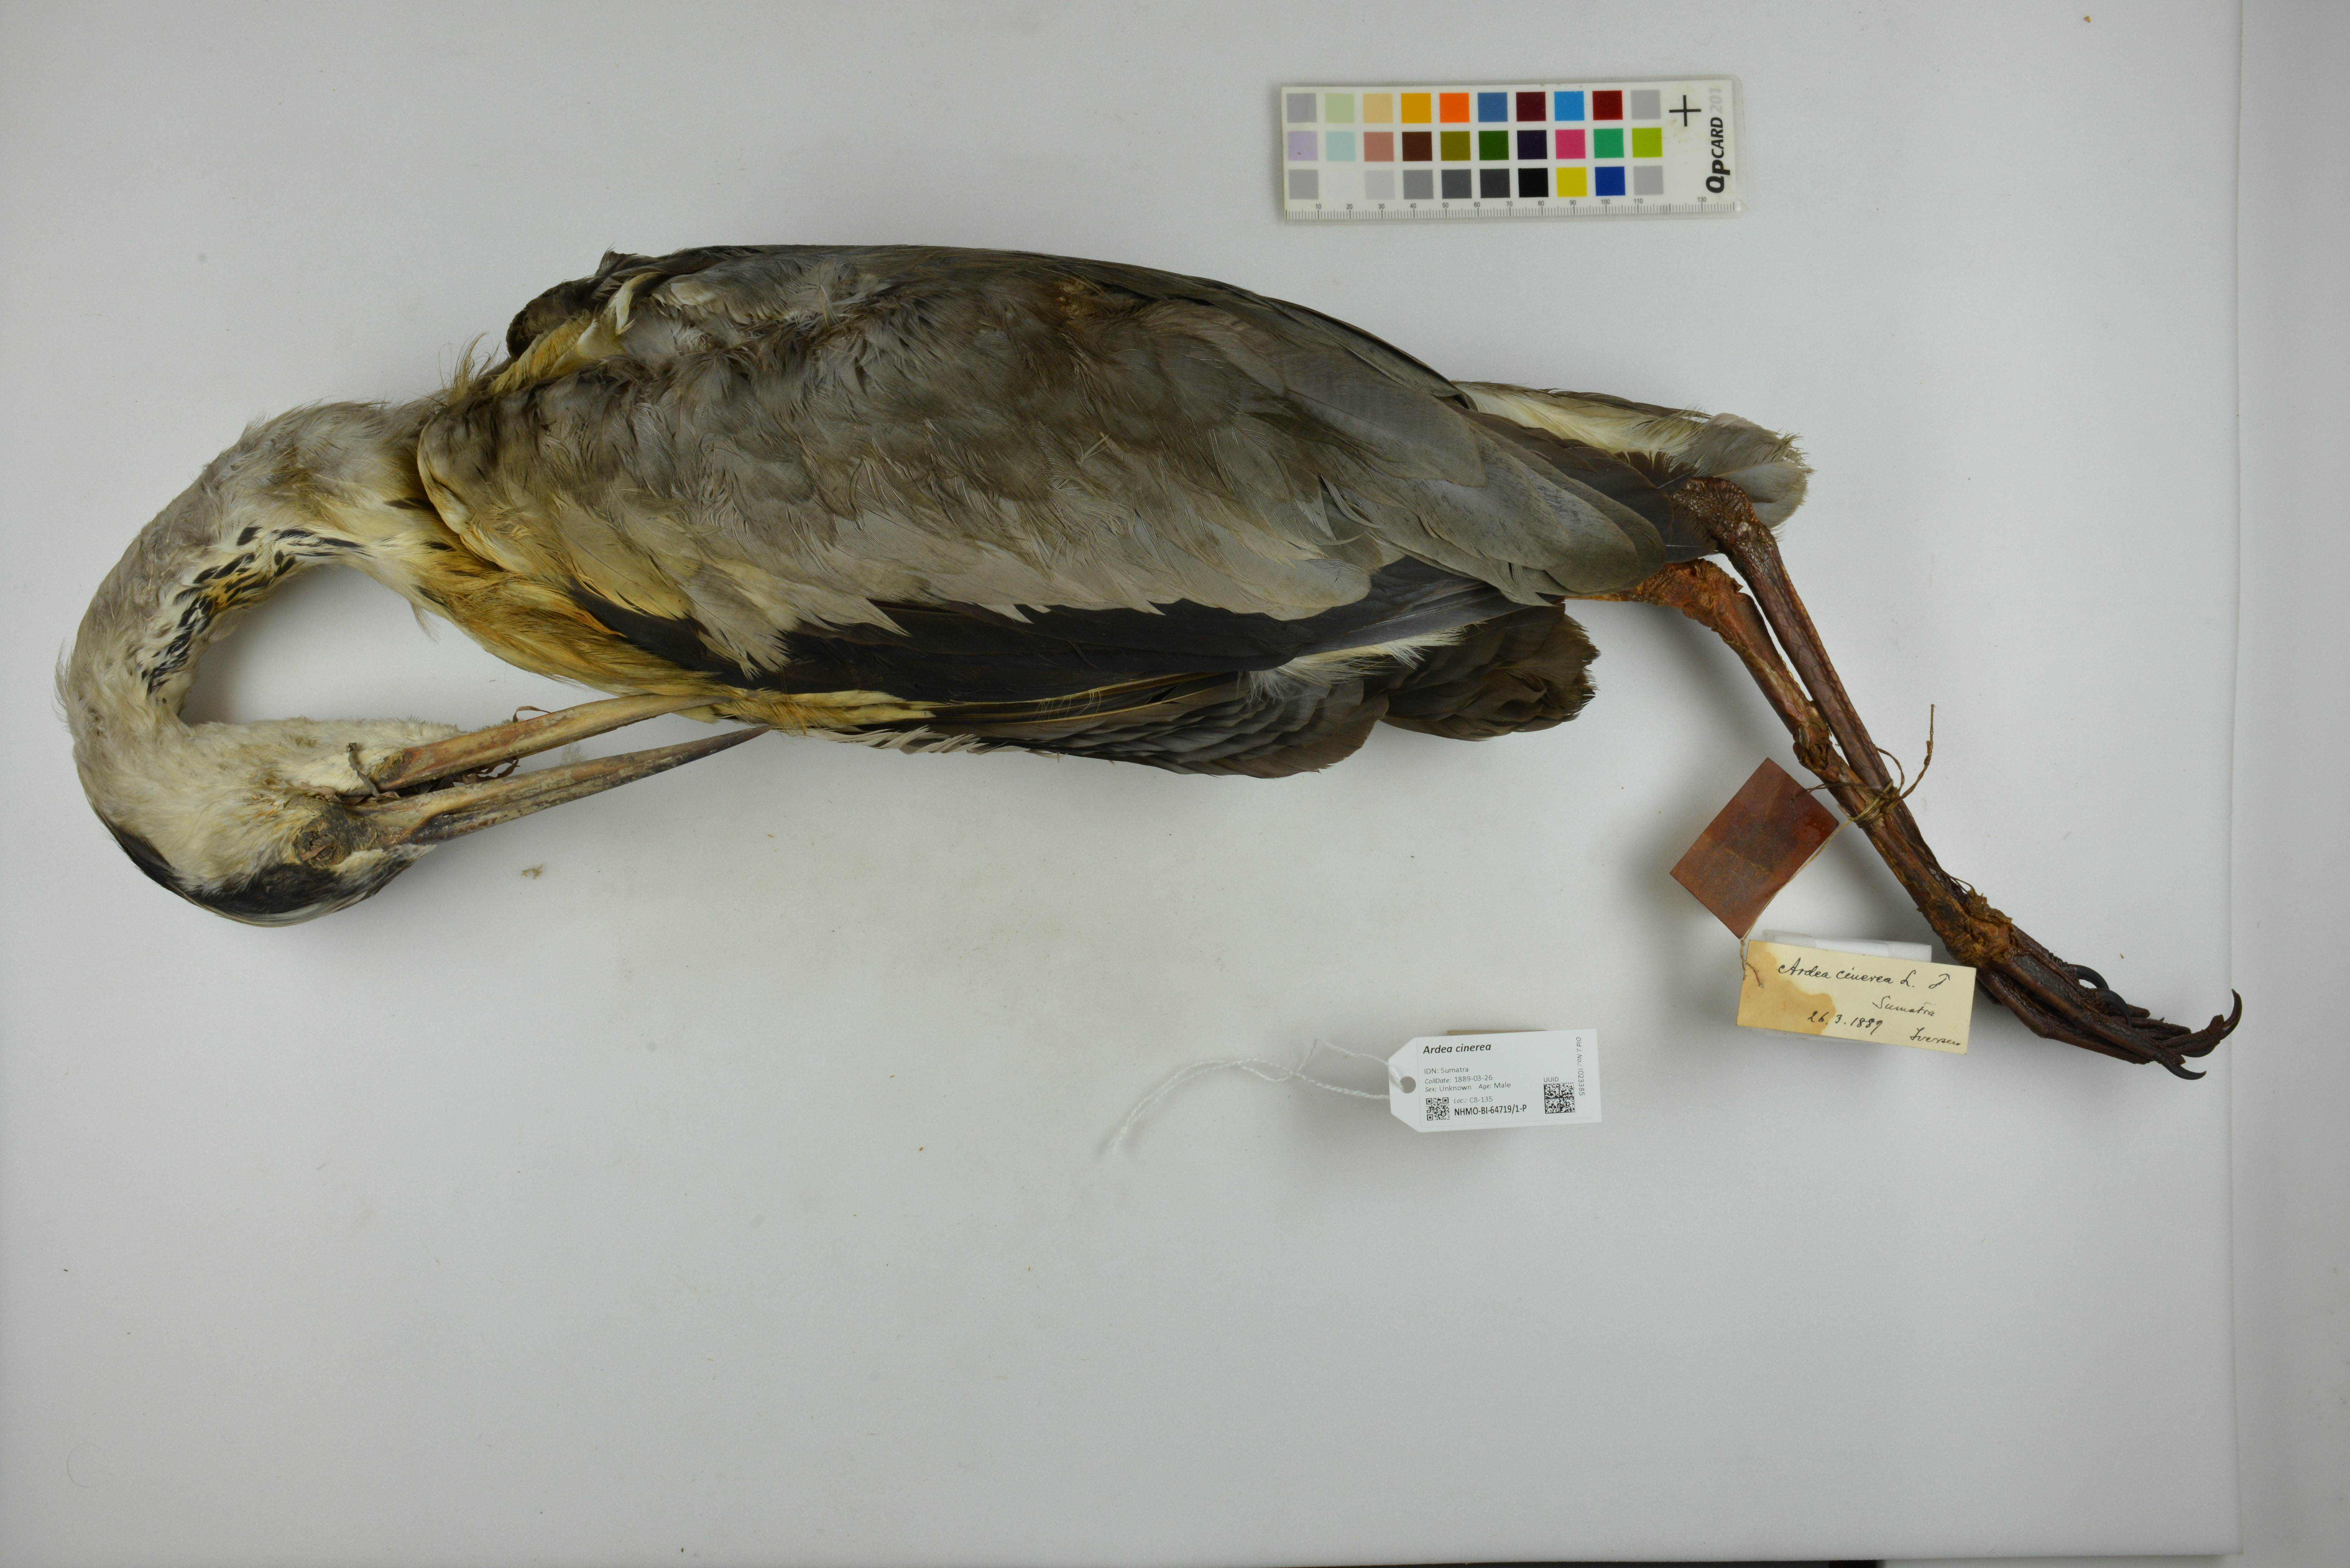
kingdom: Animalia
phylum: Chordata
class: Aves
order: Pelecaniformes
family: Ardeidae
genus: Ardea
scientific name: Ardea cinerea
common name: Grey heron
